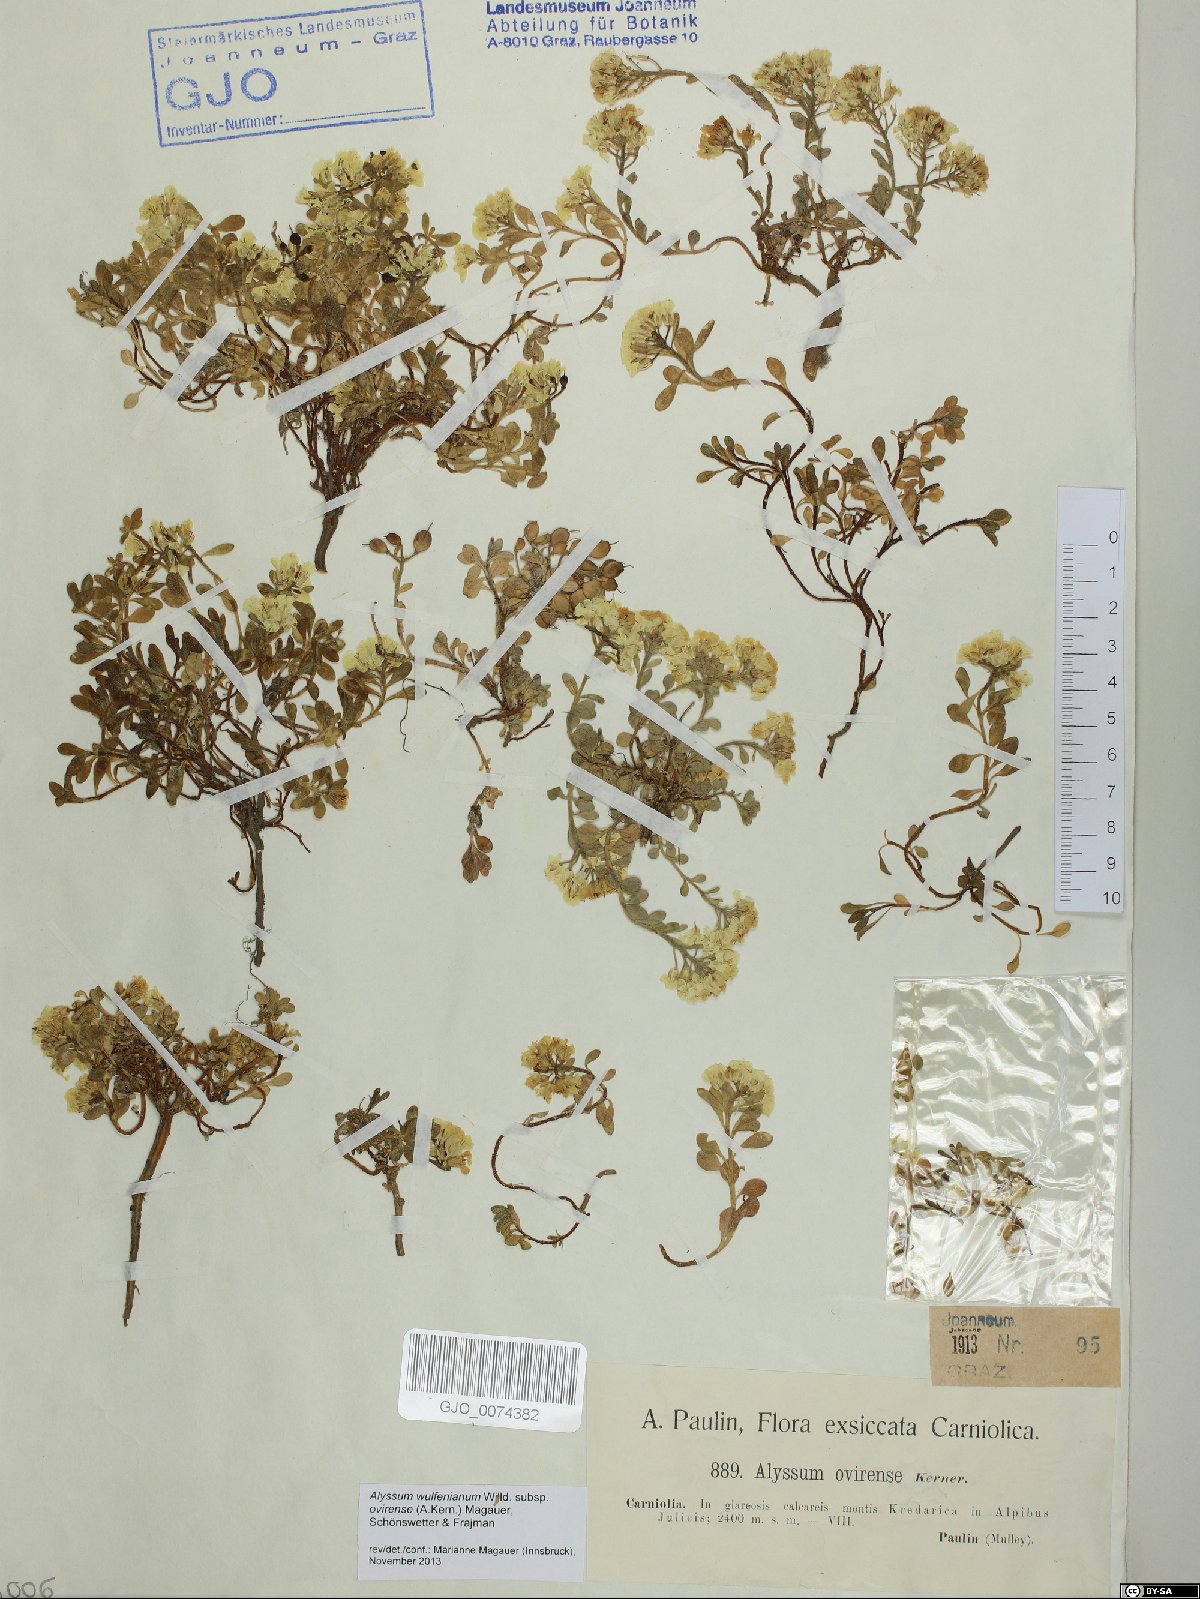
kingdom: Plantae
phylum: Tracheophyta
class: Magnoliopsida
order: Brassicales
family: Brassicaceae
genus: Alyssum
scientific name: Alyssum wulfenianum
